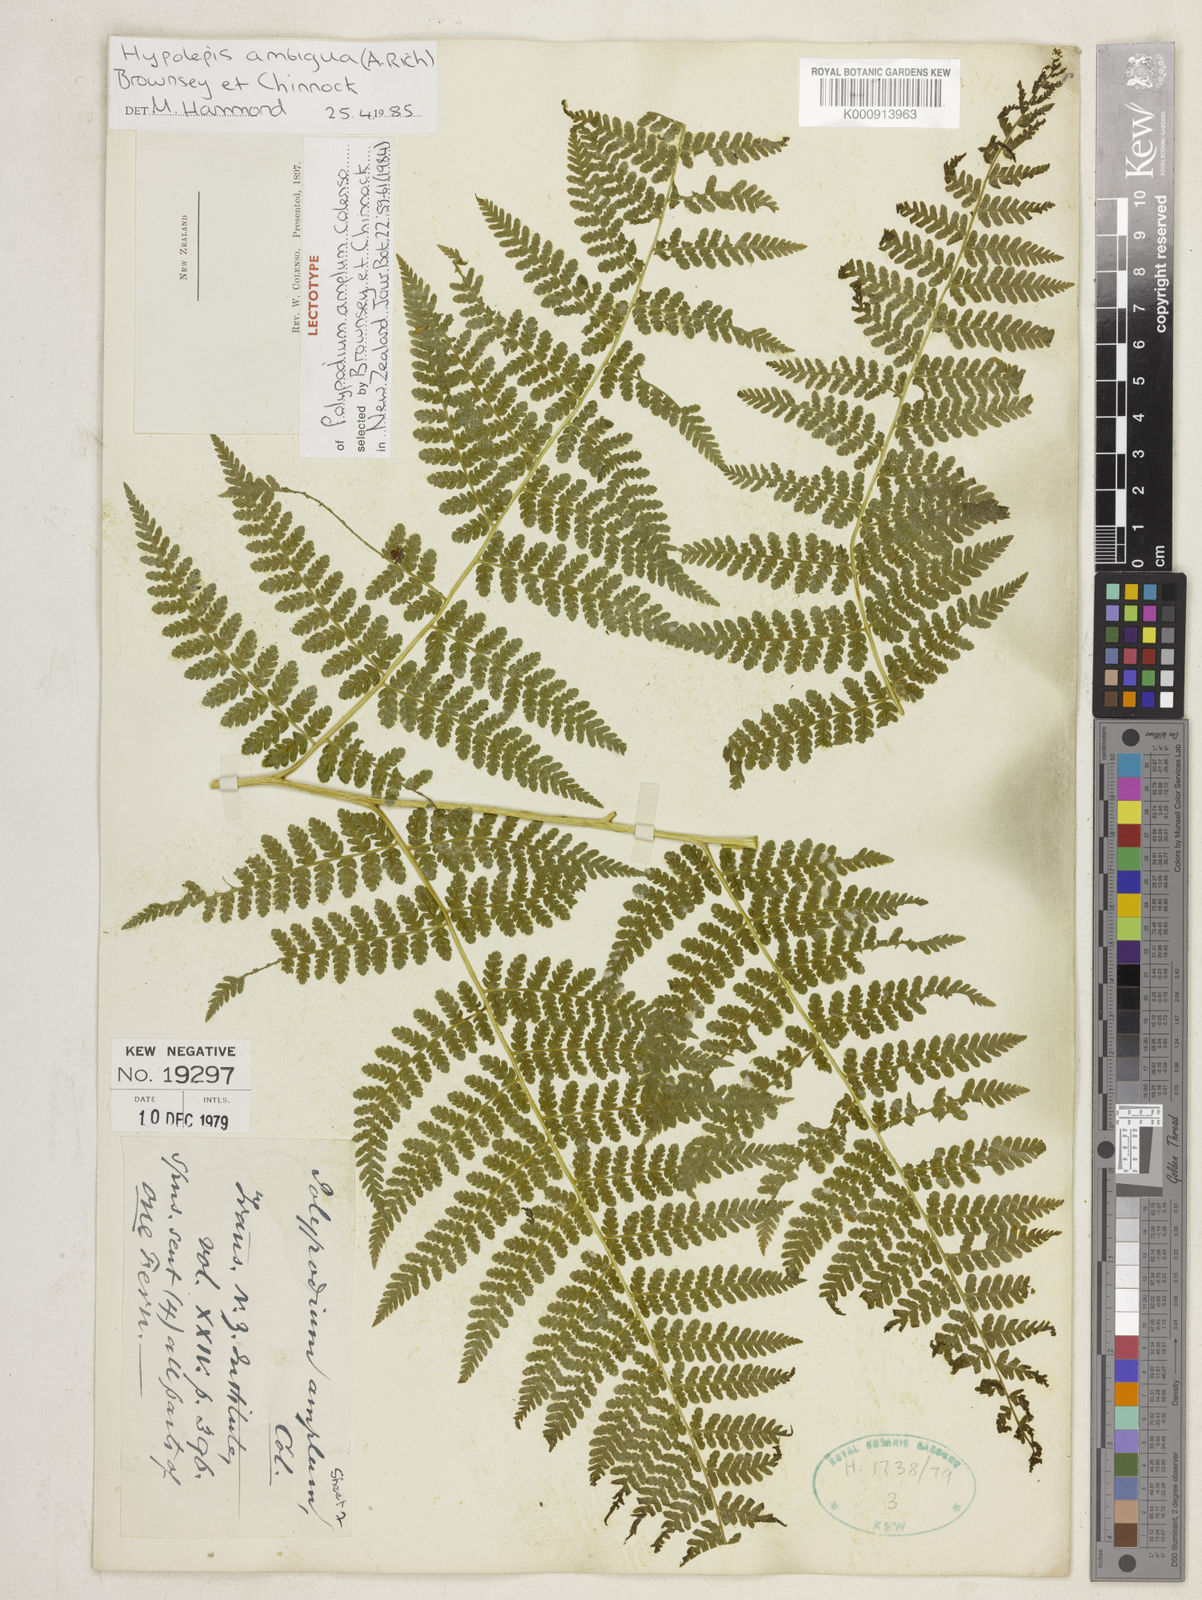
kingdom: Plantae
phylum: Tracheophyta
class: Polypodiopsida
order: Polypodiales
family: Dennstaedtiaceae
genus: Hypolepis
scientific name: Hypolepis ambigua
